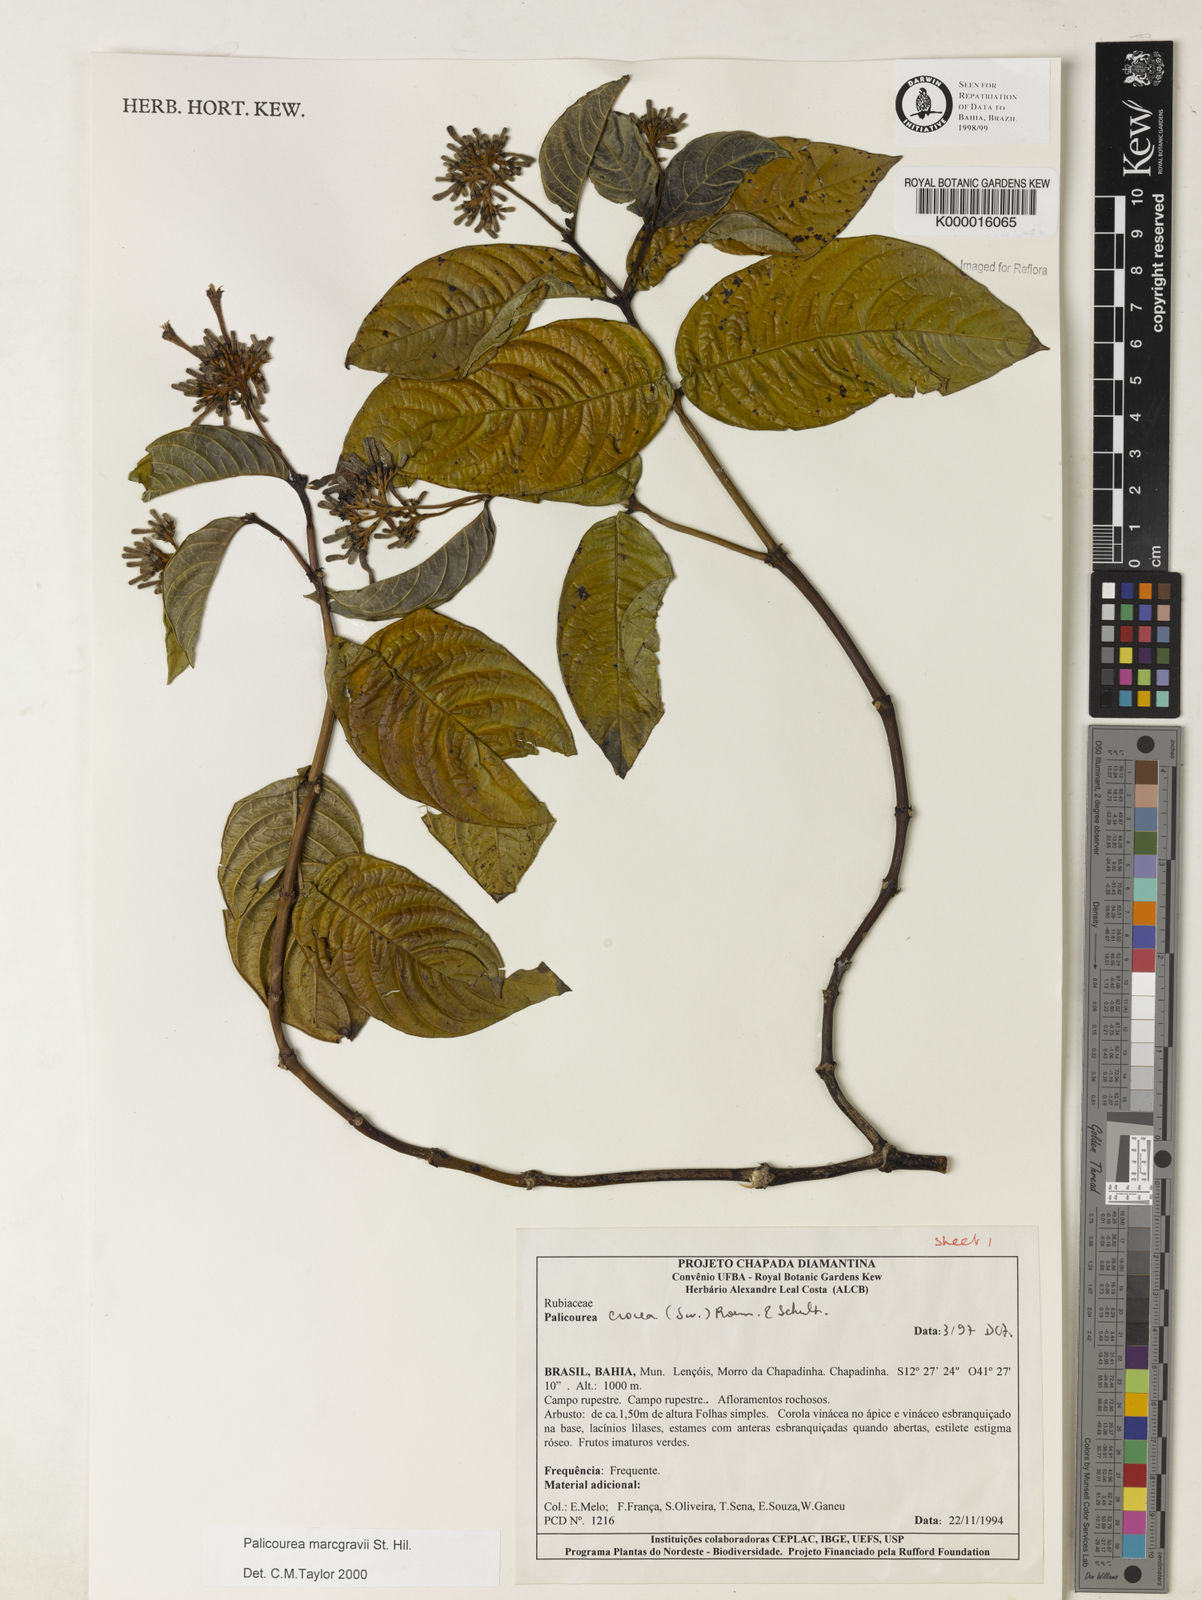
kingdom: Plantae
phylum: Tracheophyta
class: Magnoliopsida
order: Gentianales
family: Rubiaceae
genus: Palicourea
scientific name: Palicourea marcgravii
